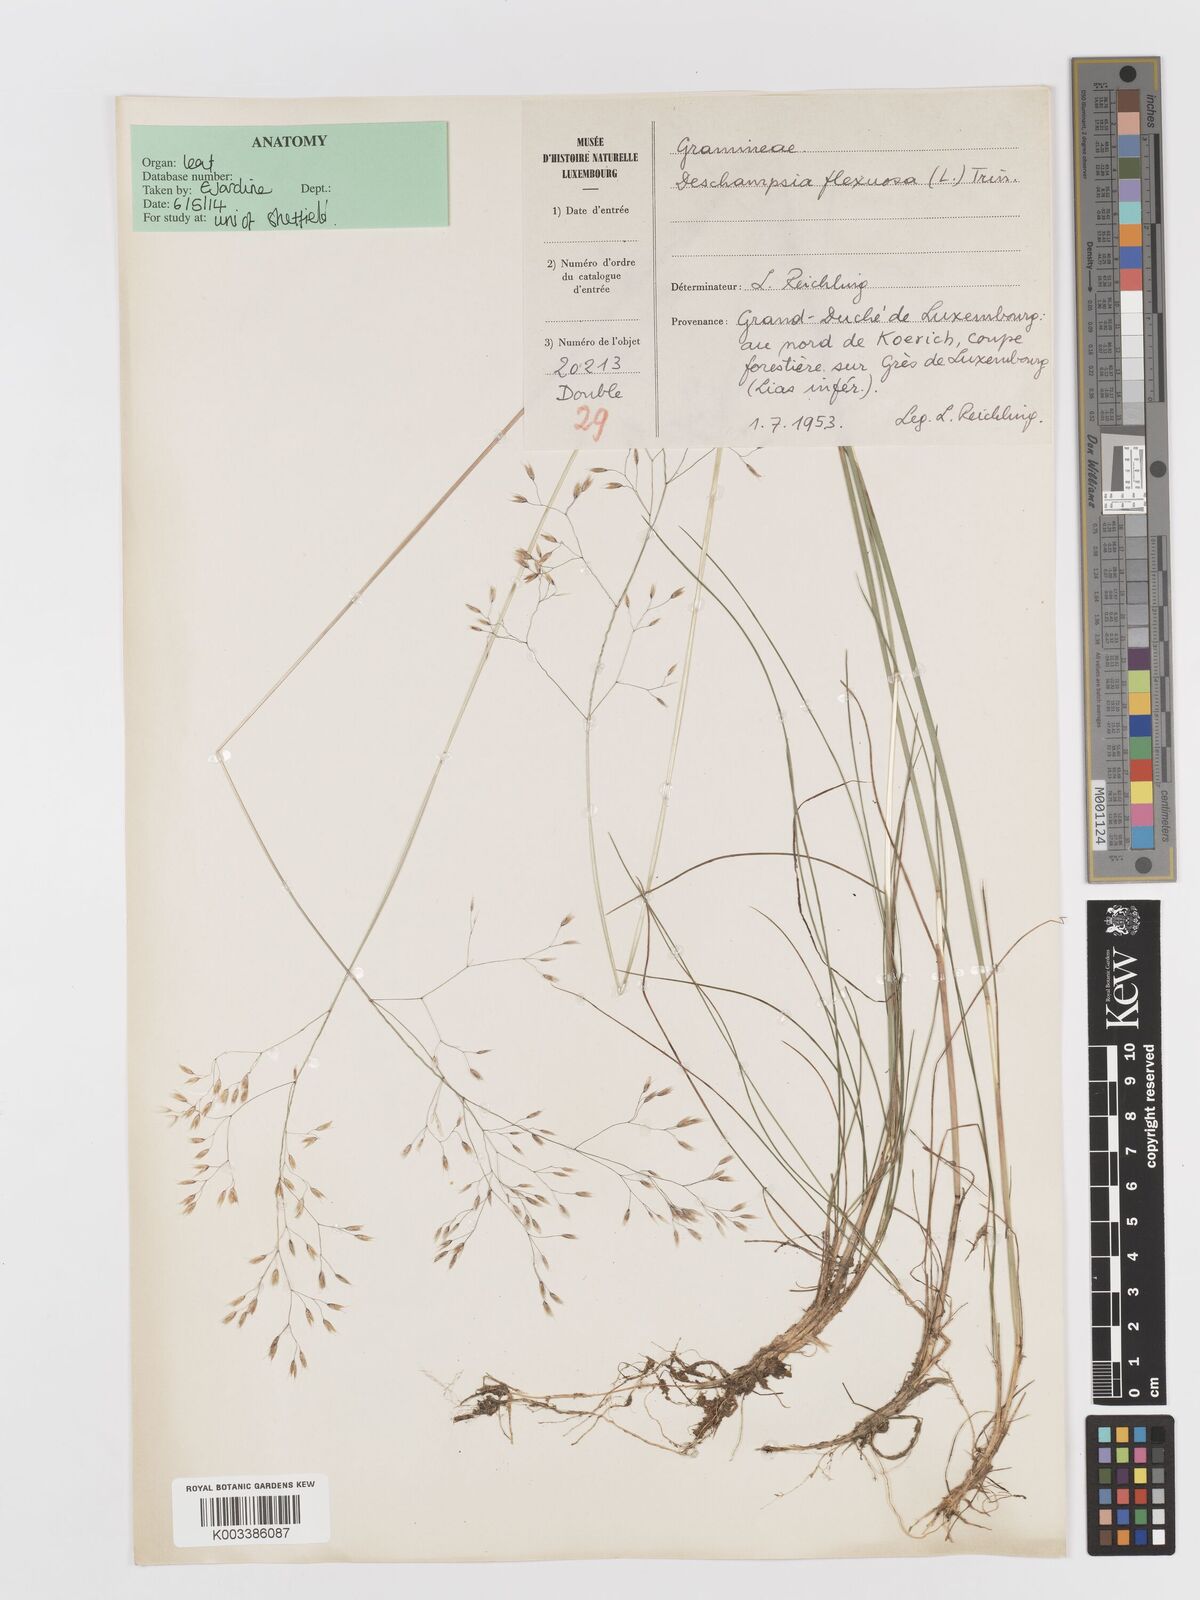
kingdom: Plantae
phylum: Tracheophyta
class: Liliopsida
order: Poales
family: Poaceae
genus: Avenella
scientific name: Avenella flexuosa
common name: Wavy hairgrass
